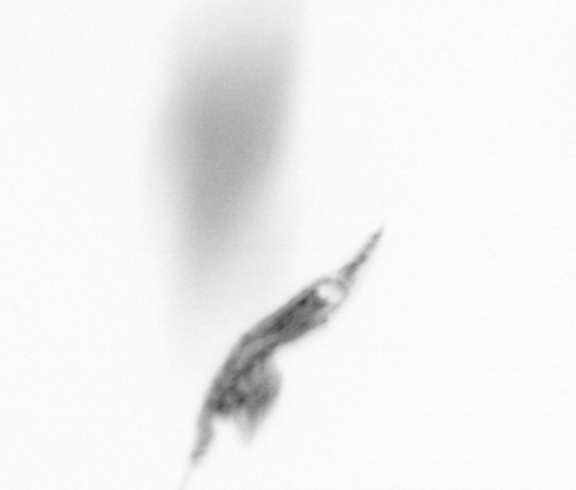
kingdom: Animalia
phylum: Arthropoda
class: Copepoda
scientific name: Copepoda
